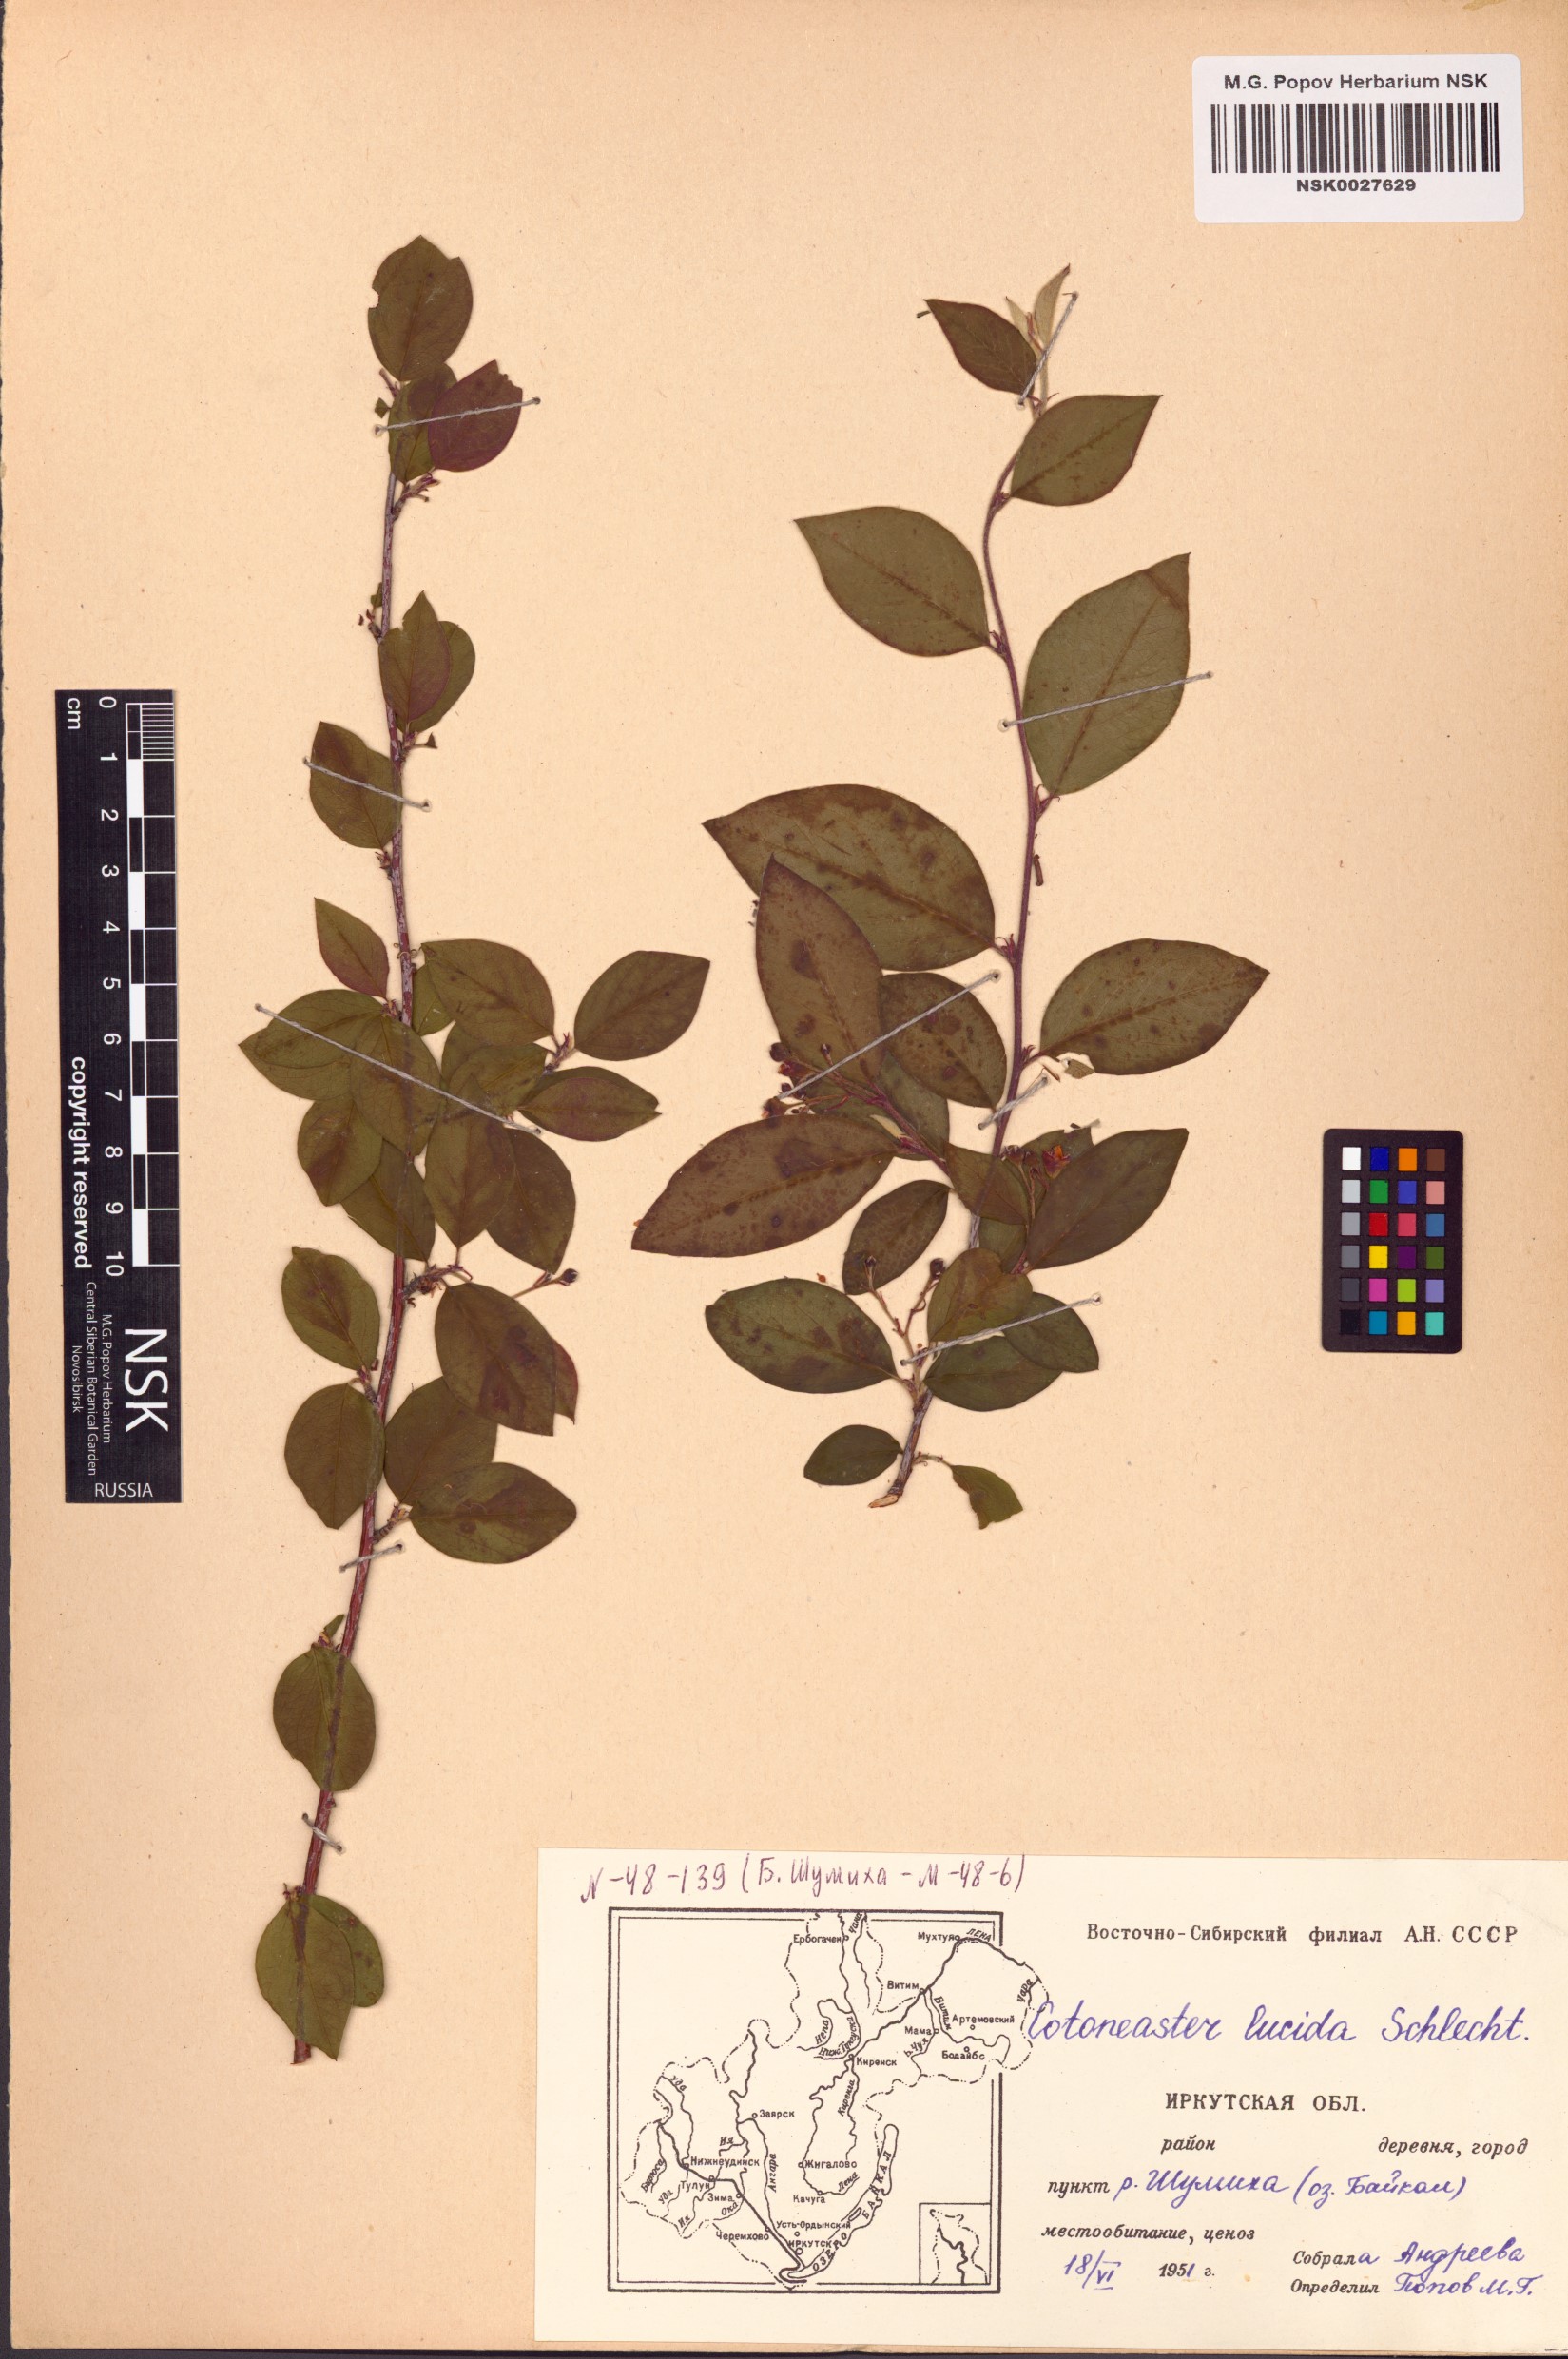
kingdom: Plantae
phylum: Tracheophyta
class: Magnoliopsida
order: Rosales
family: Rosaceae
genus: Cotoneaster
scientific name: Cotoneaster acutifolius
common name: Peking cotoneaster
